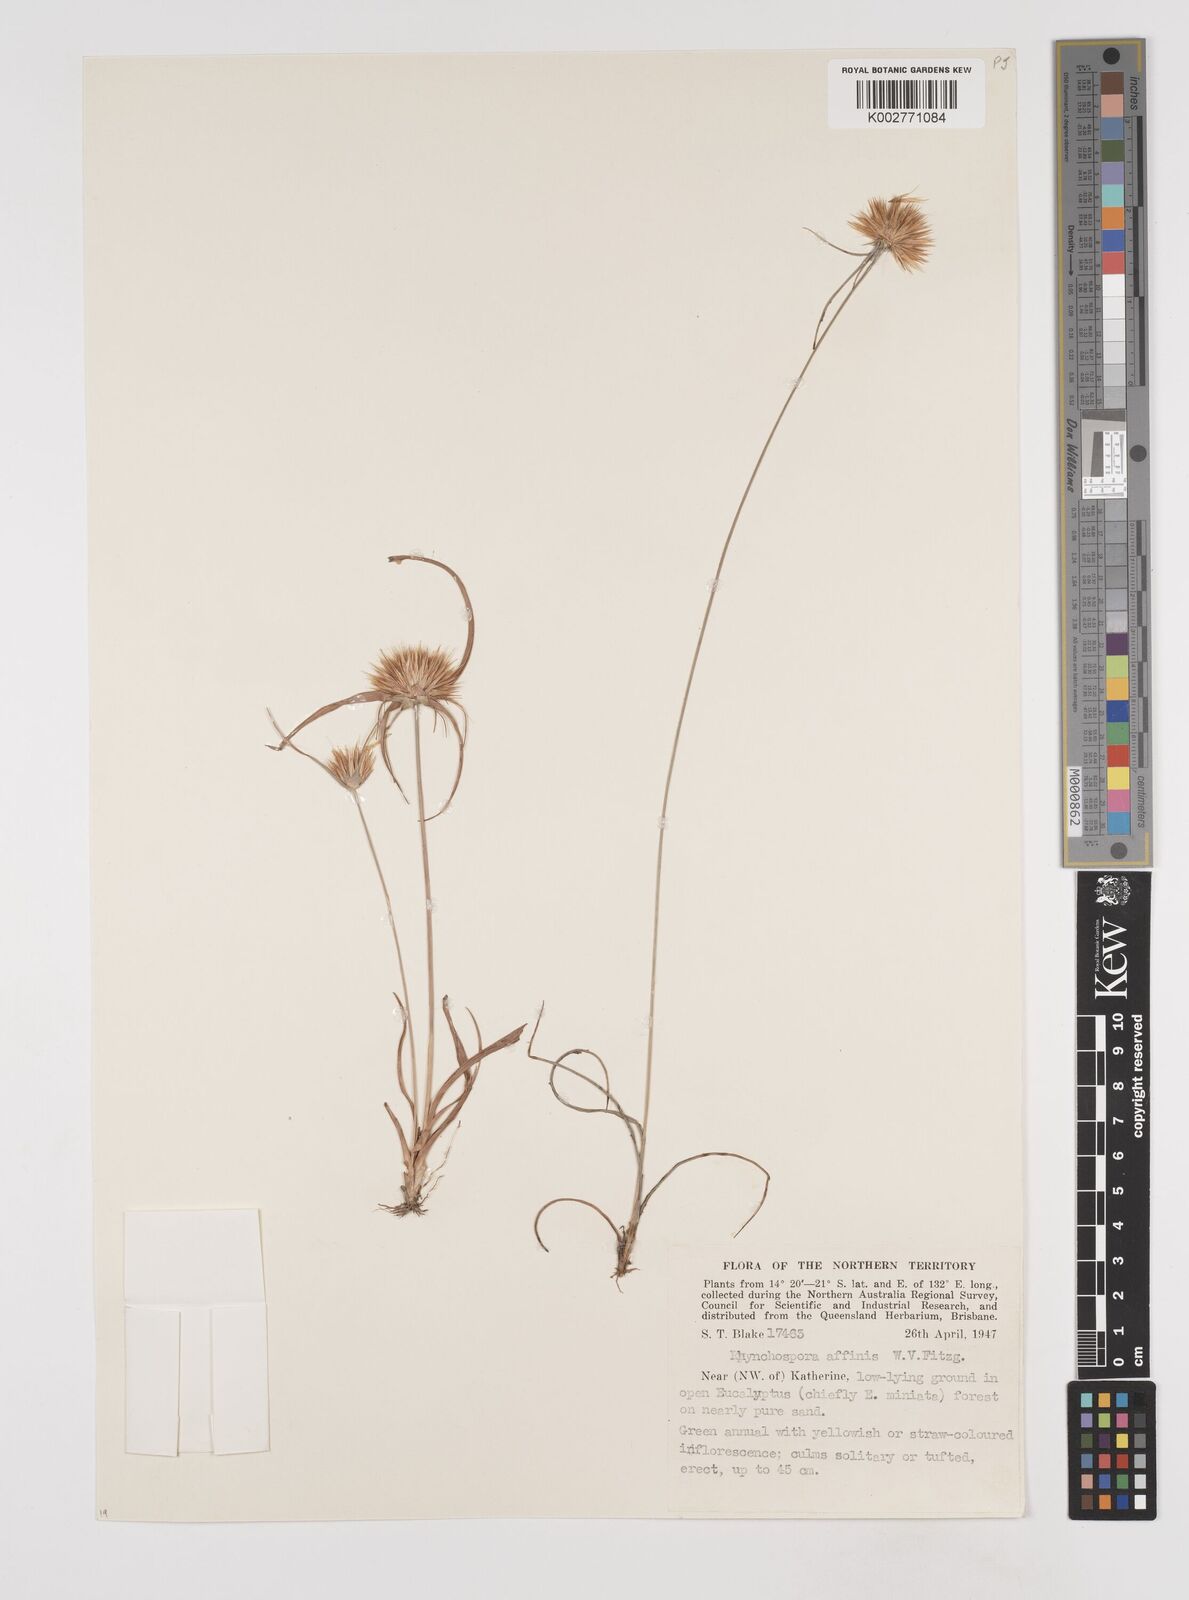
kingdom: Plantae
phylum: Tracheophyta
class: Liliopsida
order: Poales
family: Cyperaceae
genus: Rhynchospora
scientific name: Rhynchospora affinis
